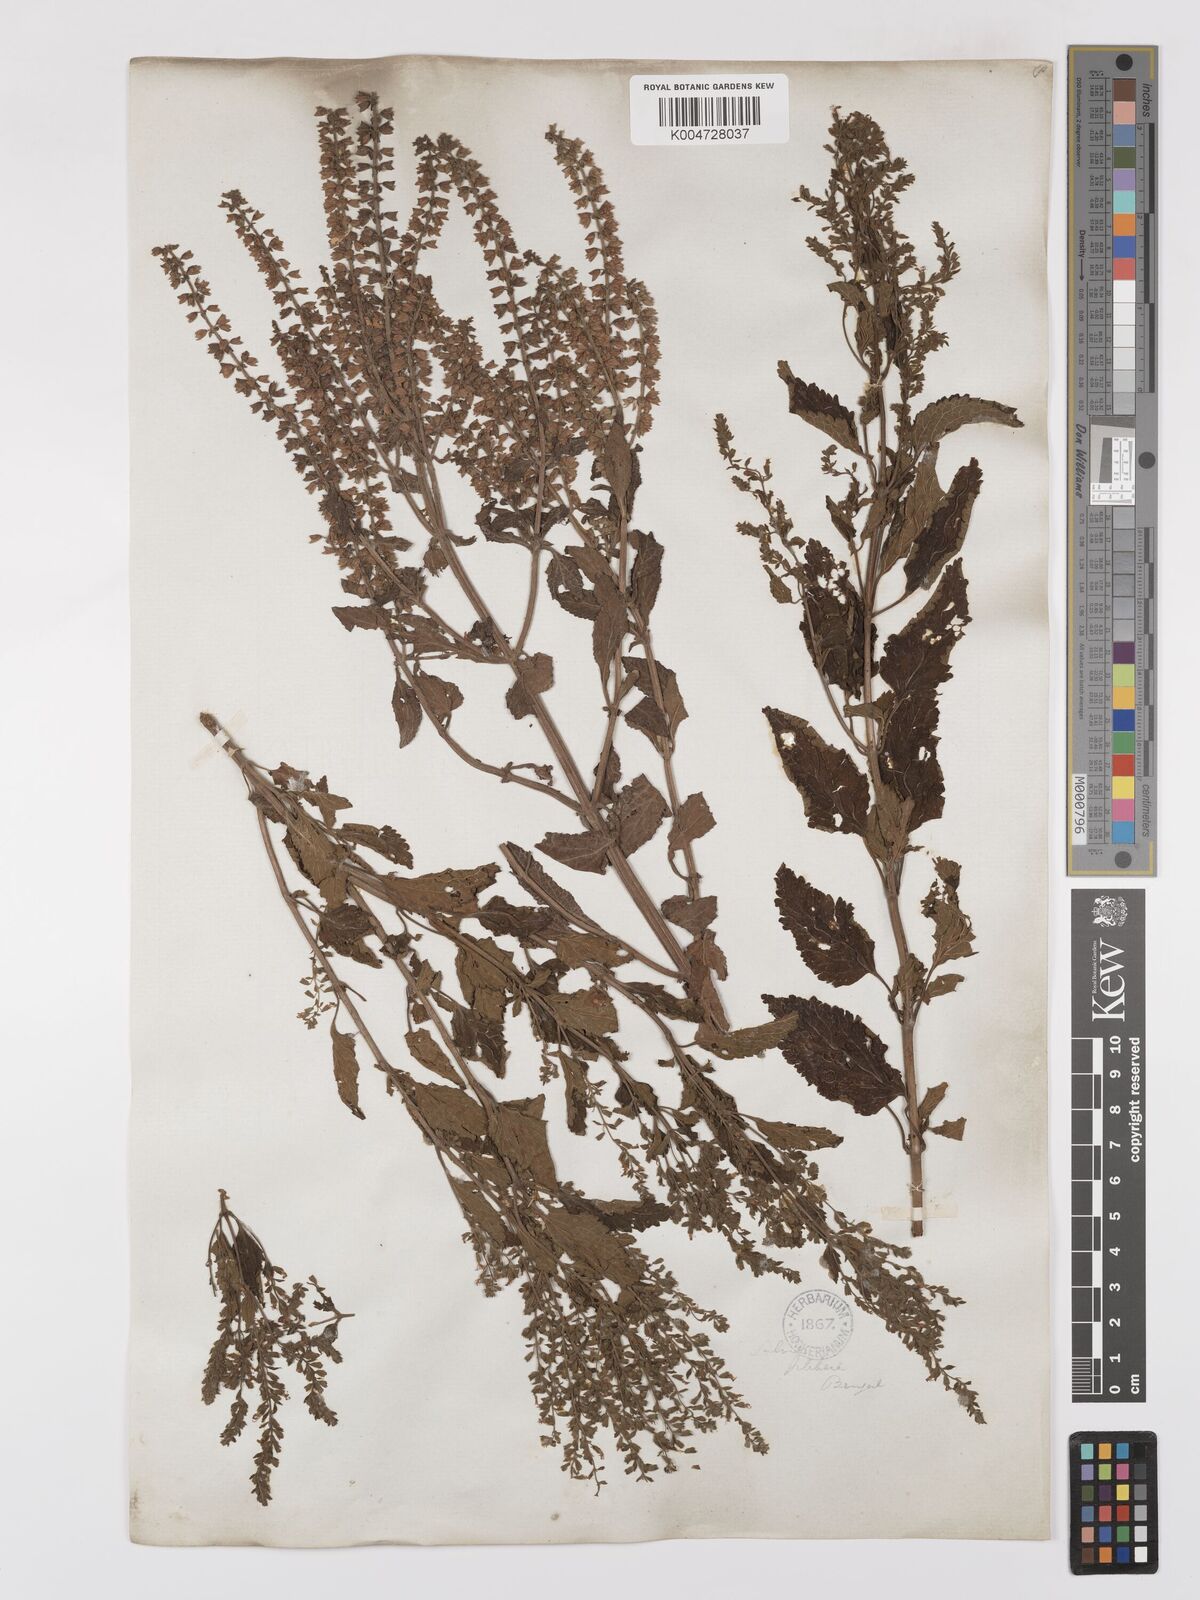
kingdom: Plantae
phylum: Tracheophyta
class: Magnoliopsida
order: Lamiales
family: Lamiaceae
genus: Salvia
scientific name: Salvia plebeia
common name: Australian sage
